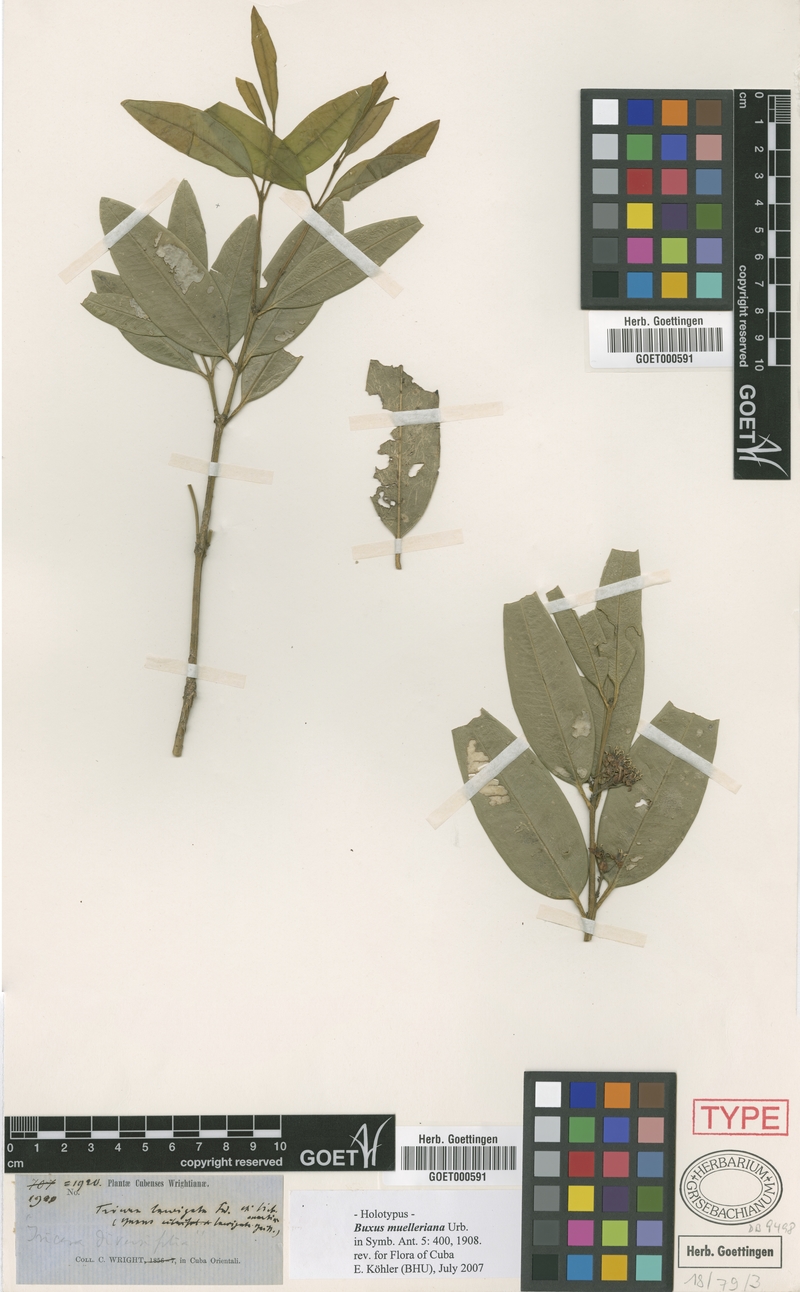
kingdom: Plantae
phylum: Tracheophyta
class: Magnoliopsida
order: Buxales
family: Buxaceae
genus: Buxus
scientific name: Buxus muelleriana
